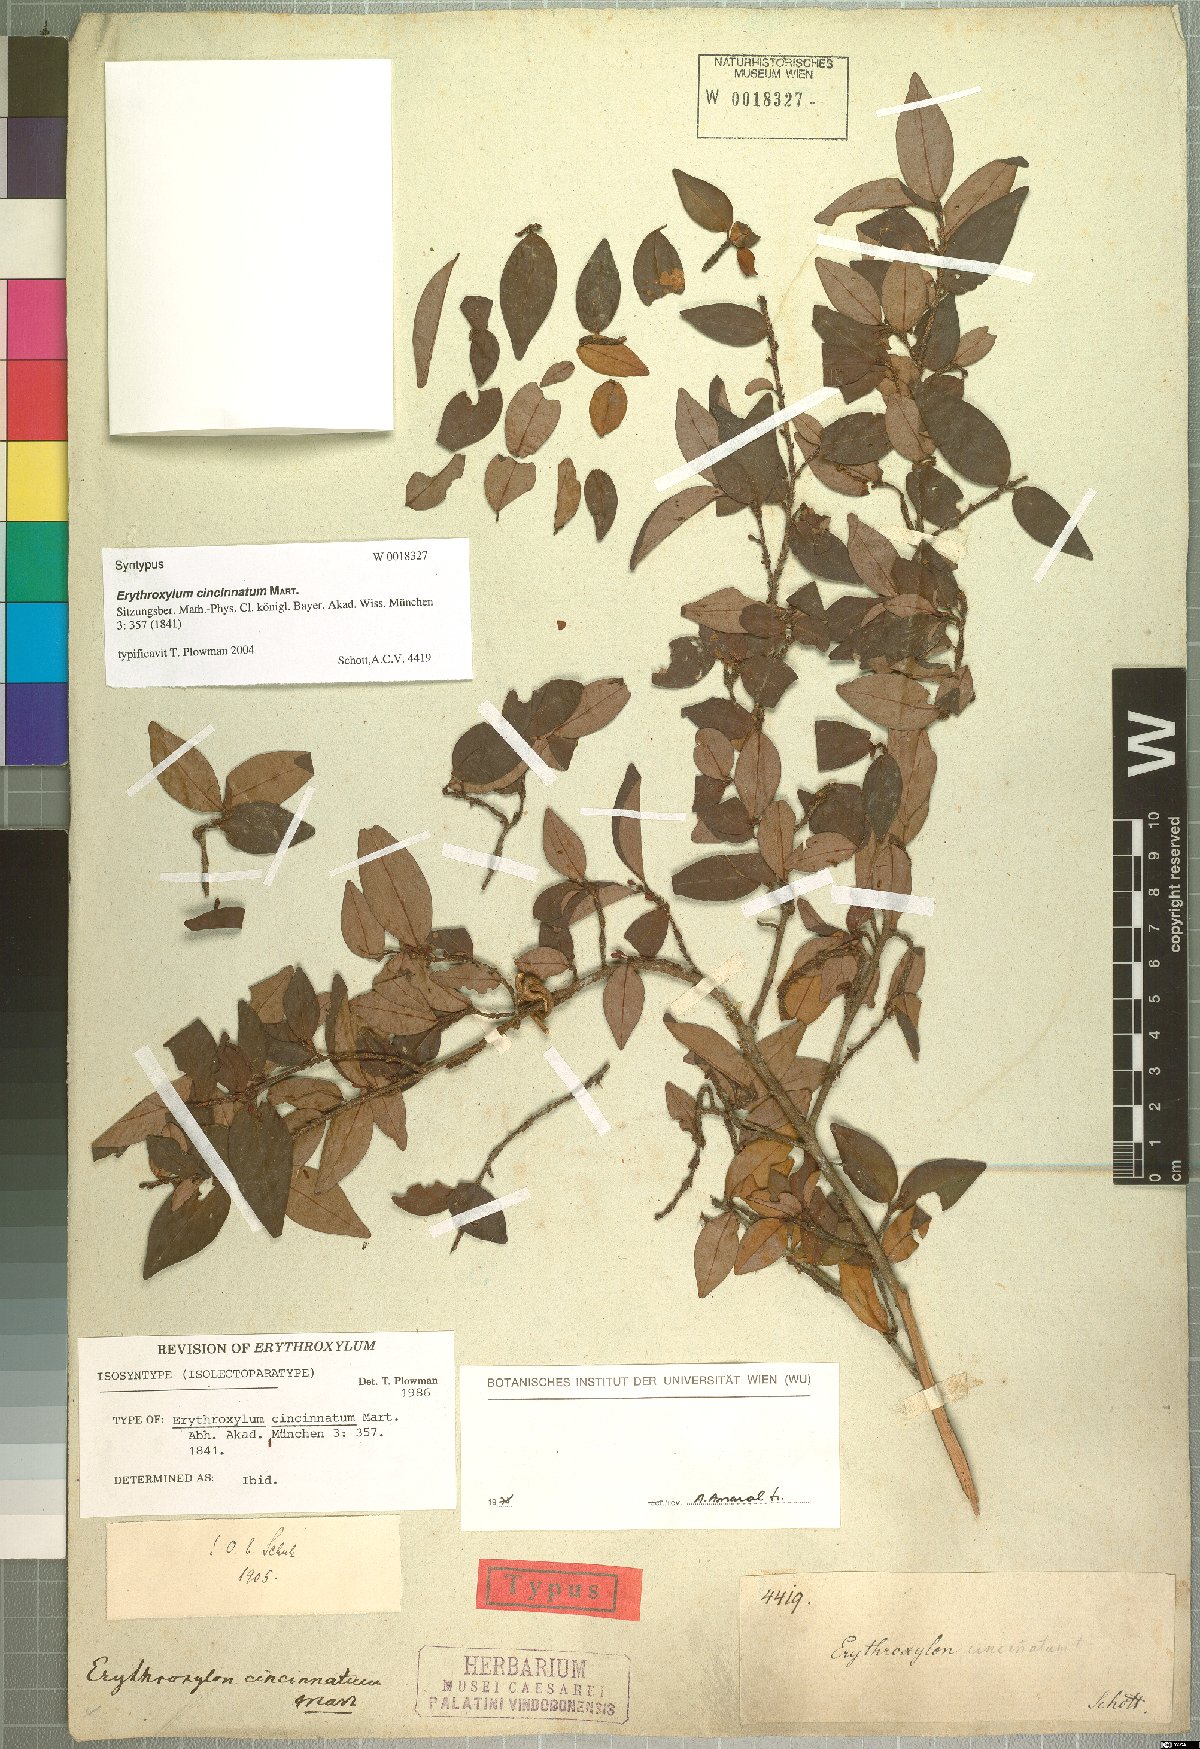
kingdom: Plantae
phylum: Tracheophyta
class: Magnoliopsida
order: Malpighiales
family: Erythroxylaceae
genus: Erythroxylum
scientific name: Erythroxylum cincinnatum
